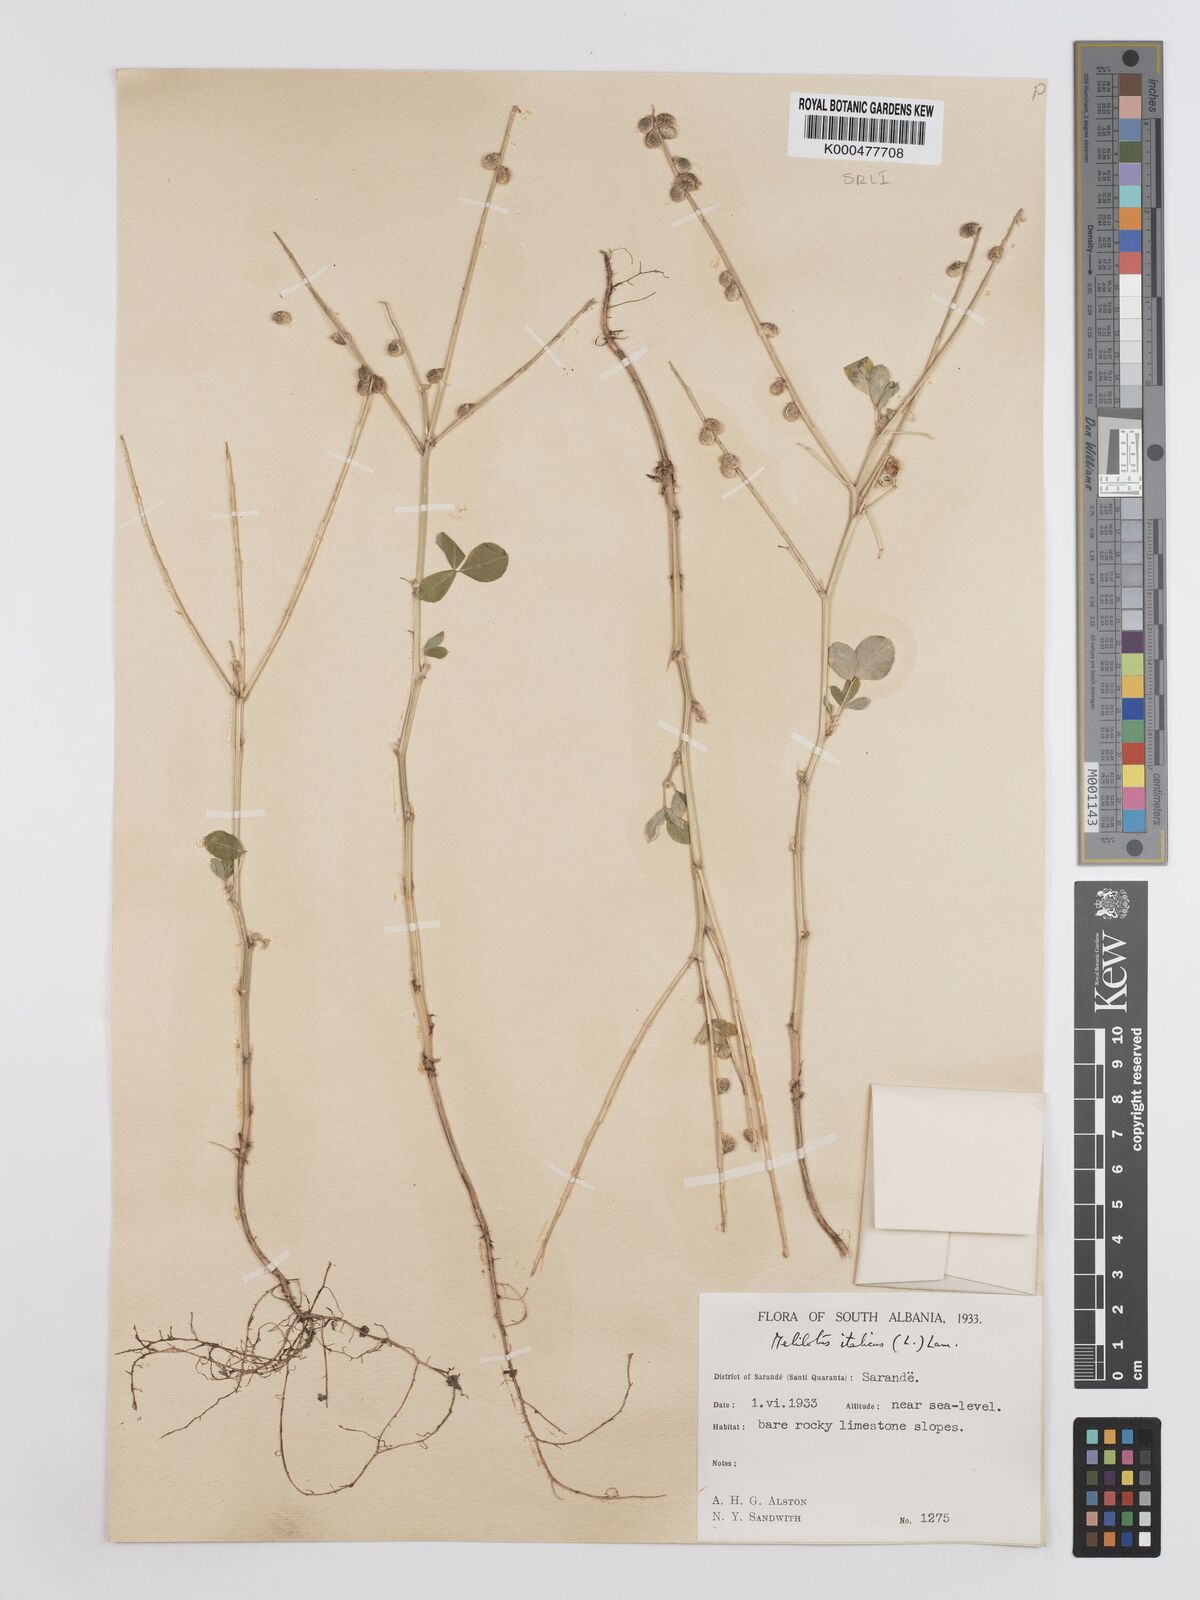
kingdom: Plantae
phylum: Tracheophyta
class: Magnoliopsida
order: Fabales
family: Fabaceae
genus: Melilotus
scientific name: Melilotus italicus
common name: Italian melilot
